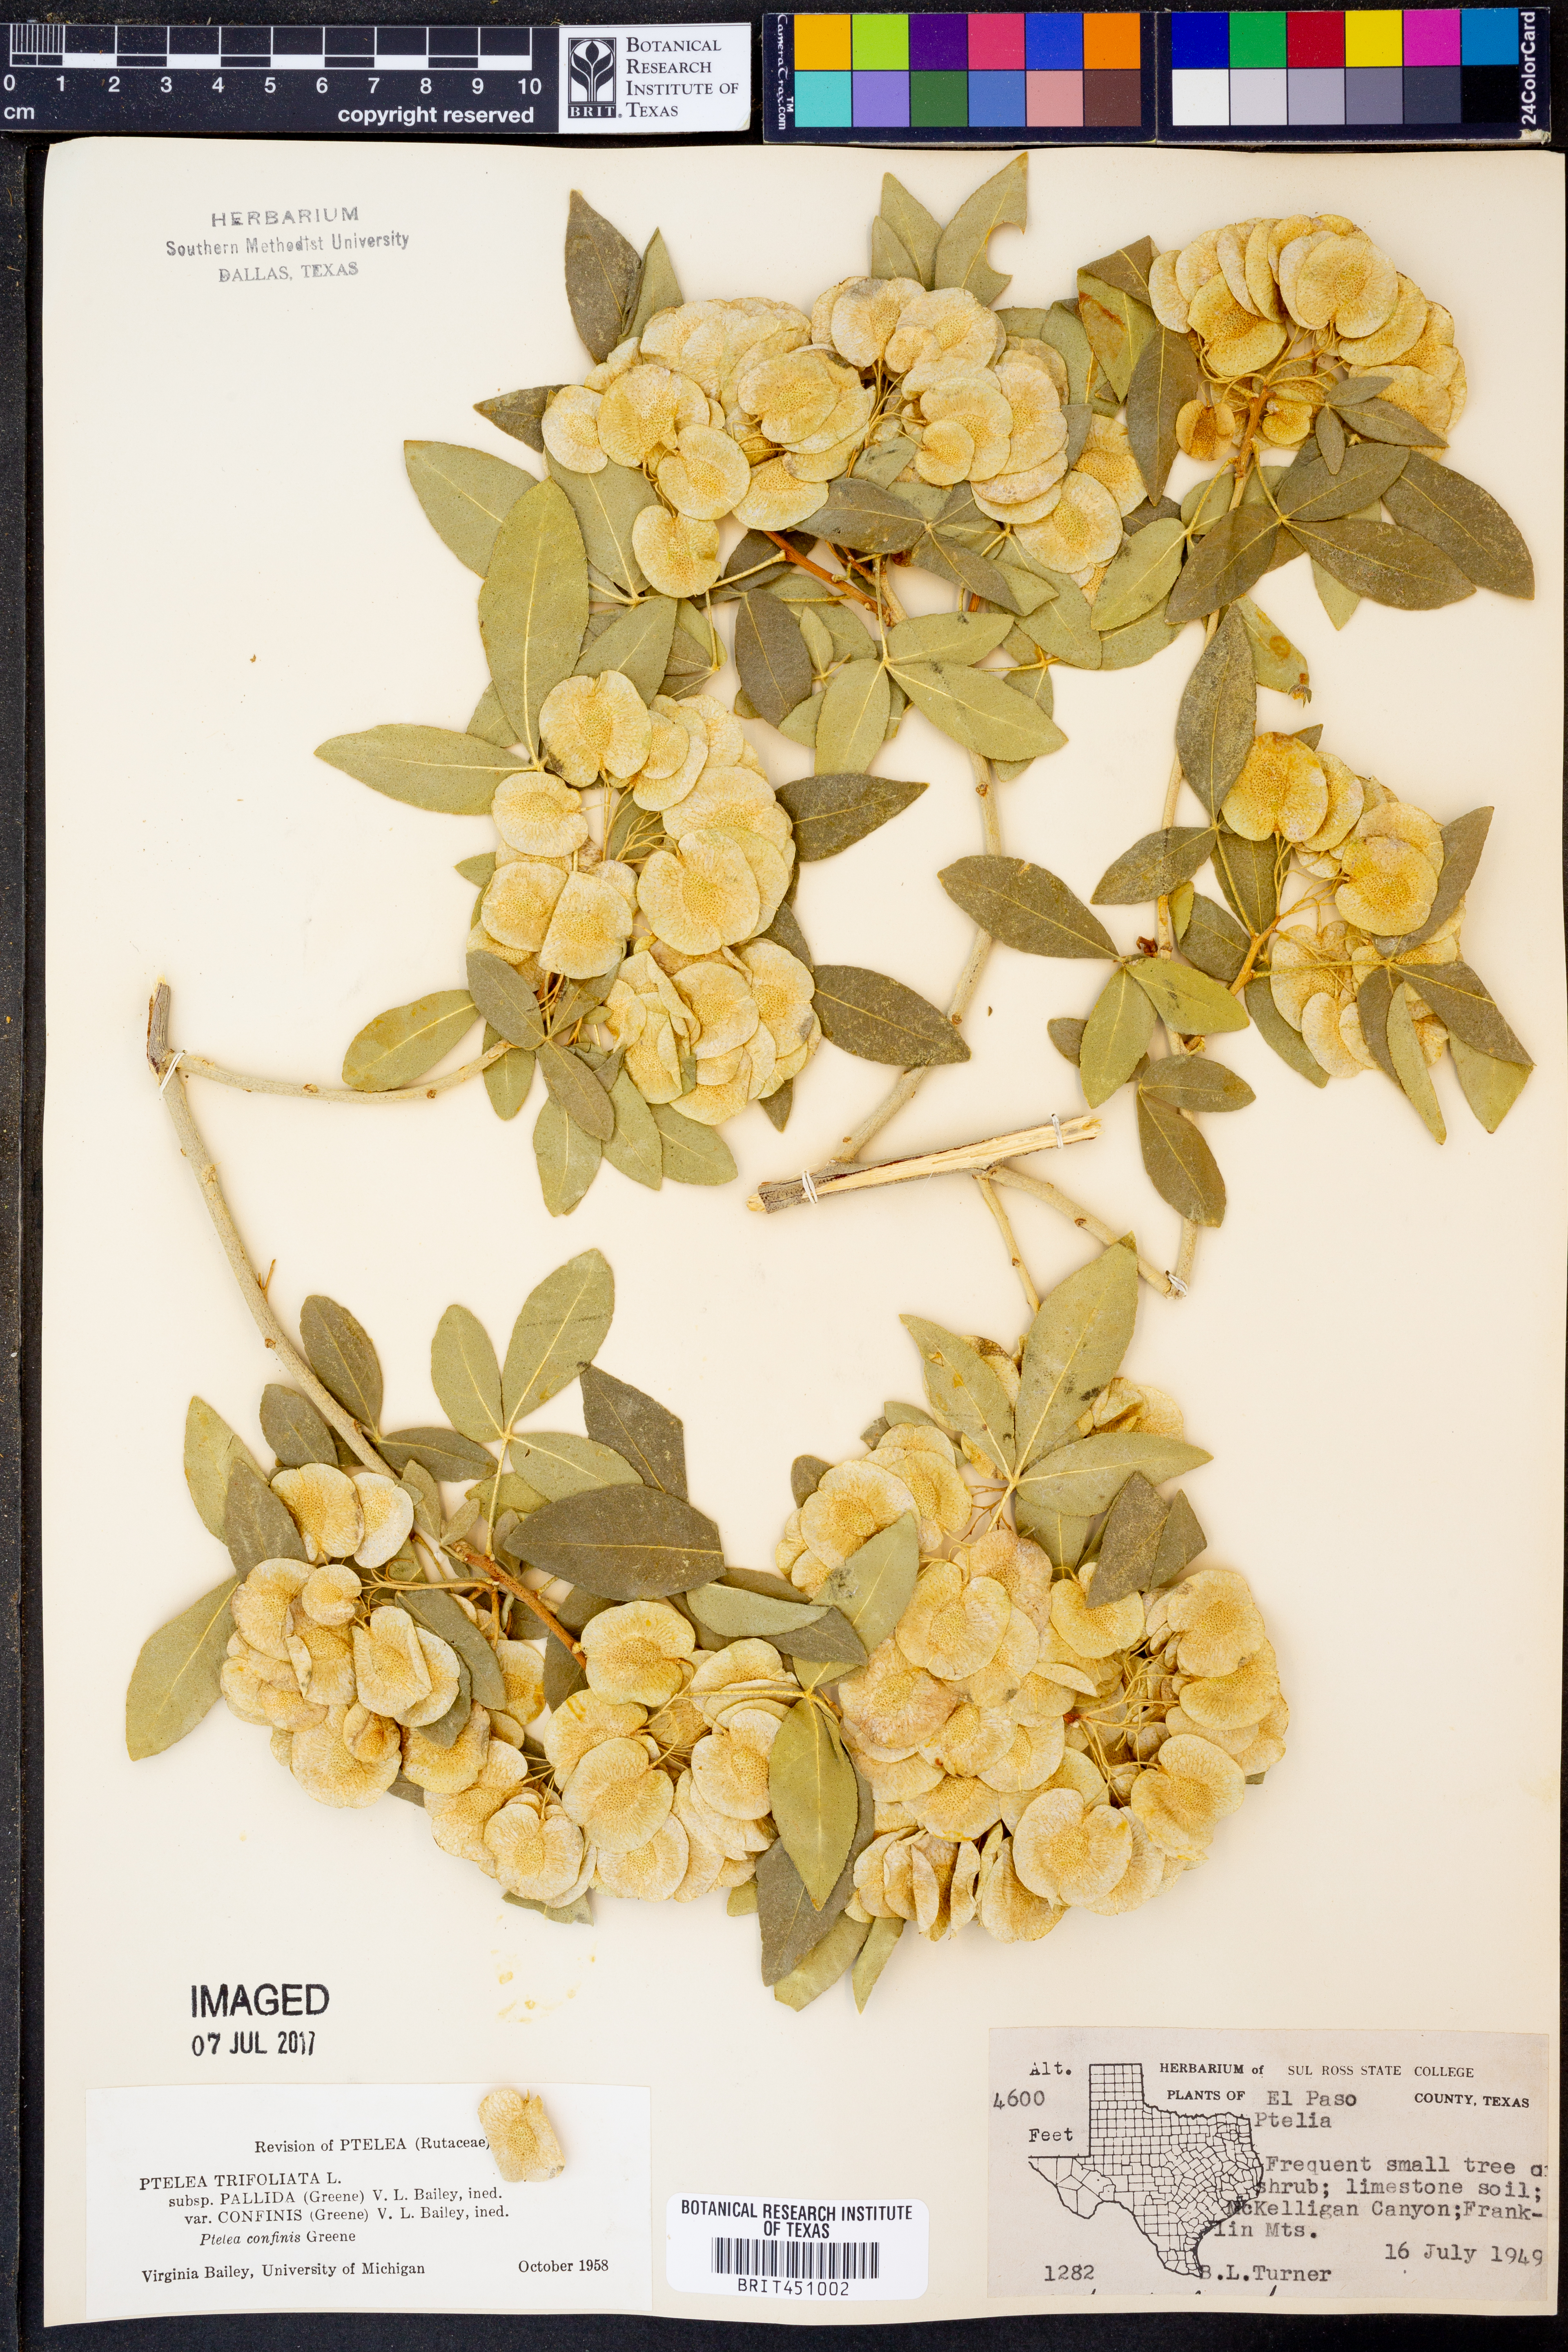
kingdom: Plantae
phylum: Tracheophyta
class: Magnoliopsida
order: Sapindales
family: Rutaceae
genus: Ptelea
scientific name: Ptelea trifoliata
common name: Common hop-tree
